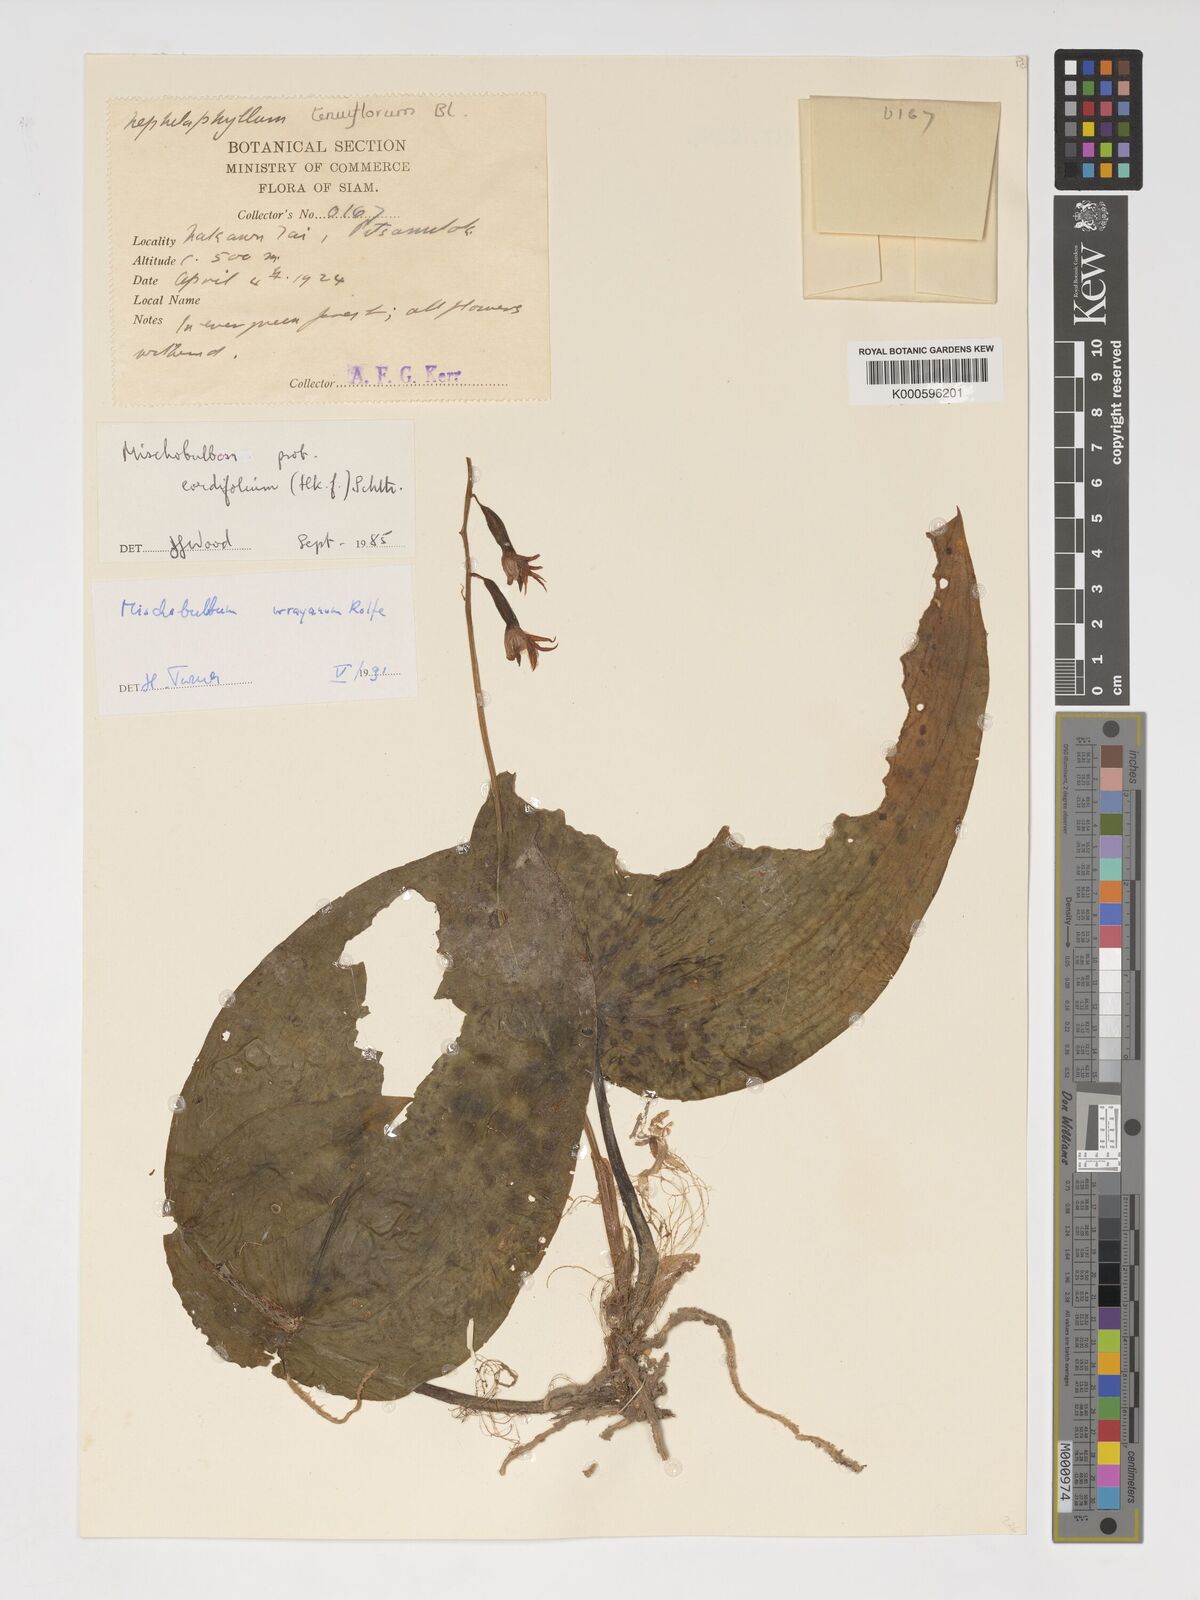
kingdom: Plantae
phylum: Tracheophyta
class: Liliopsida
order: Asparagales
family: Orchidaceae
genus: Tainia
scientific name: Tainia cordifolia
